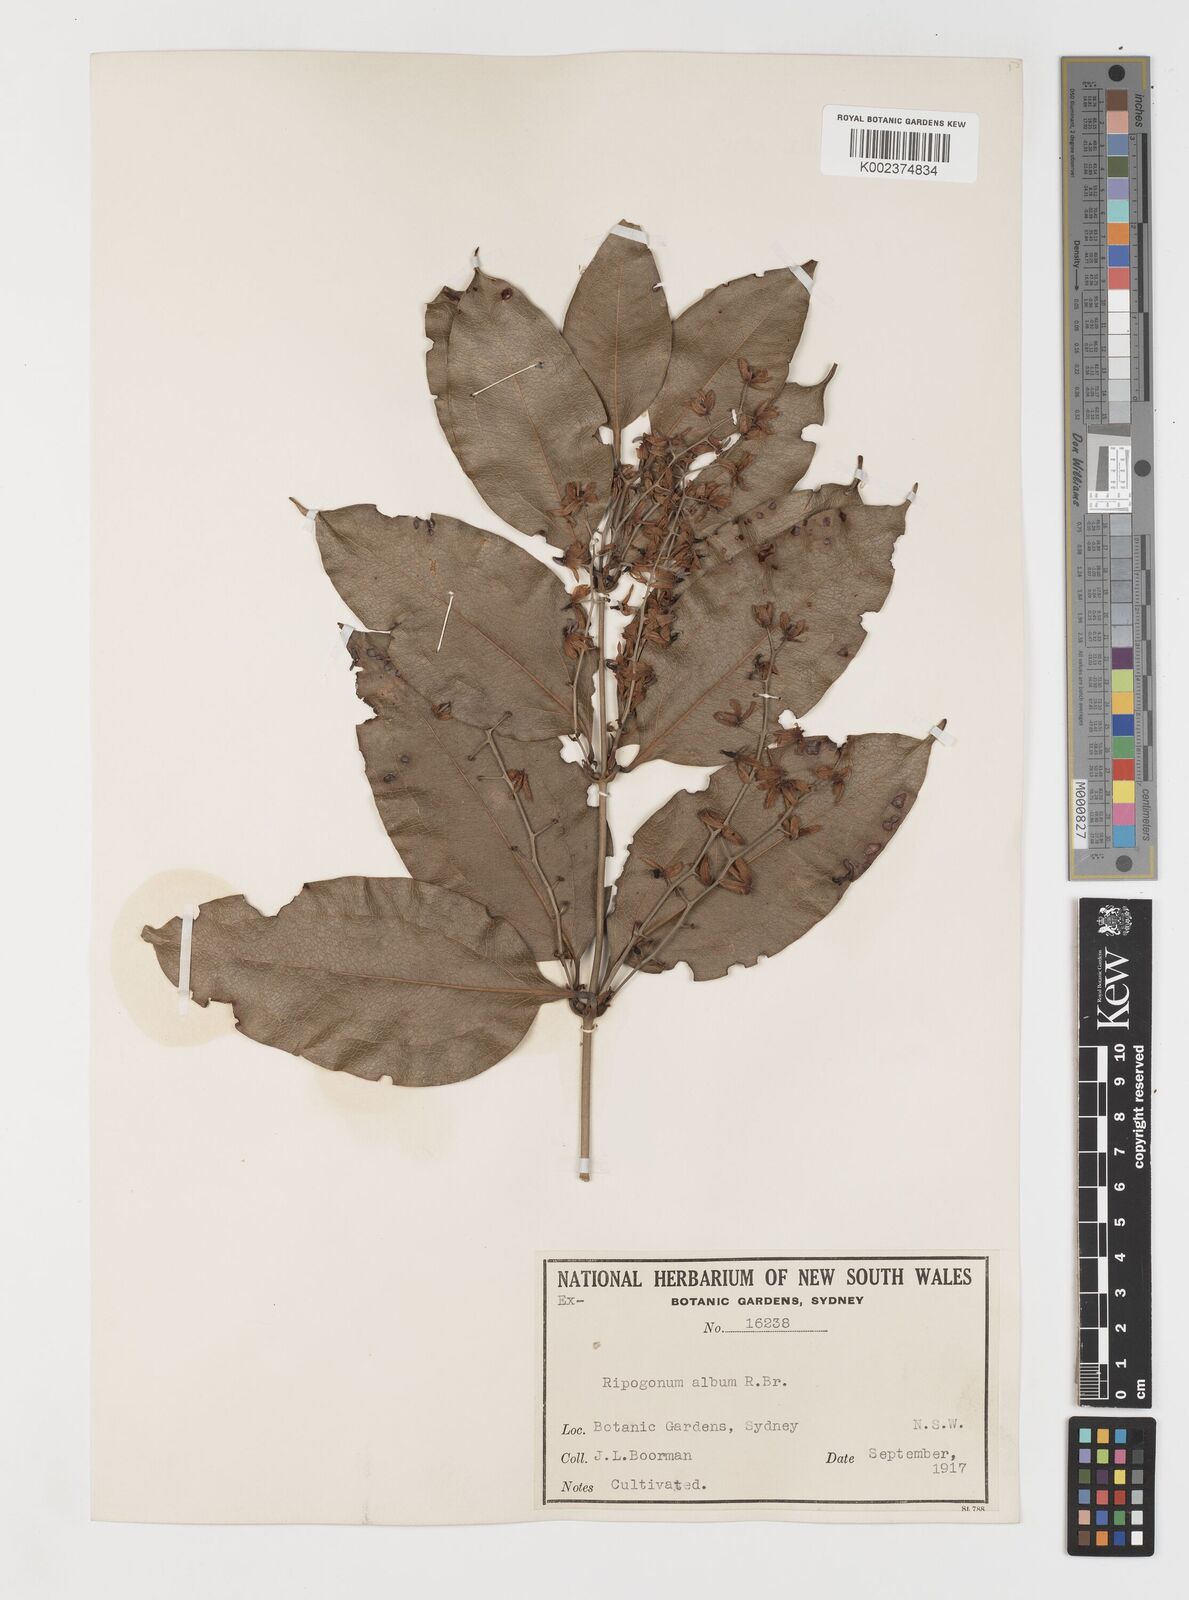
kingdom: Plantae
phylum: Tracheophyta
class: Liliopsida
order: Liliales
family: Ripogonaceae
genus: Ripogonum
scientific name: Ripogonum album
